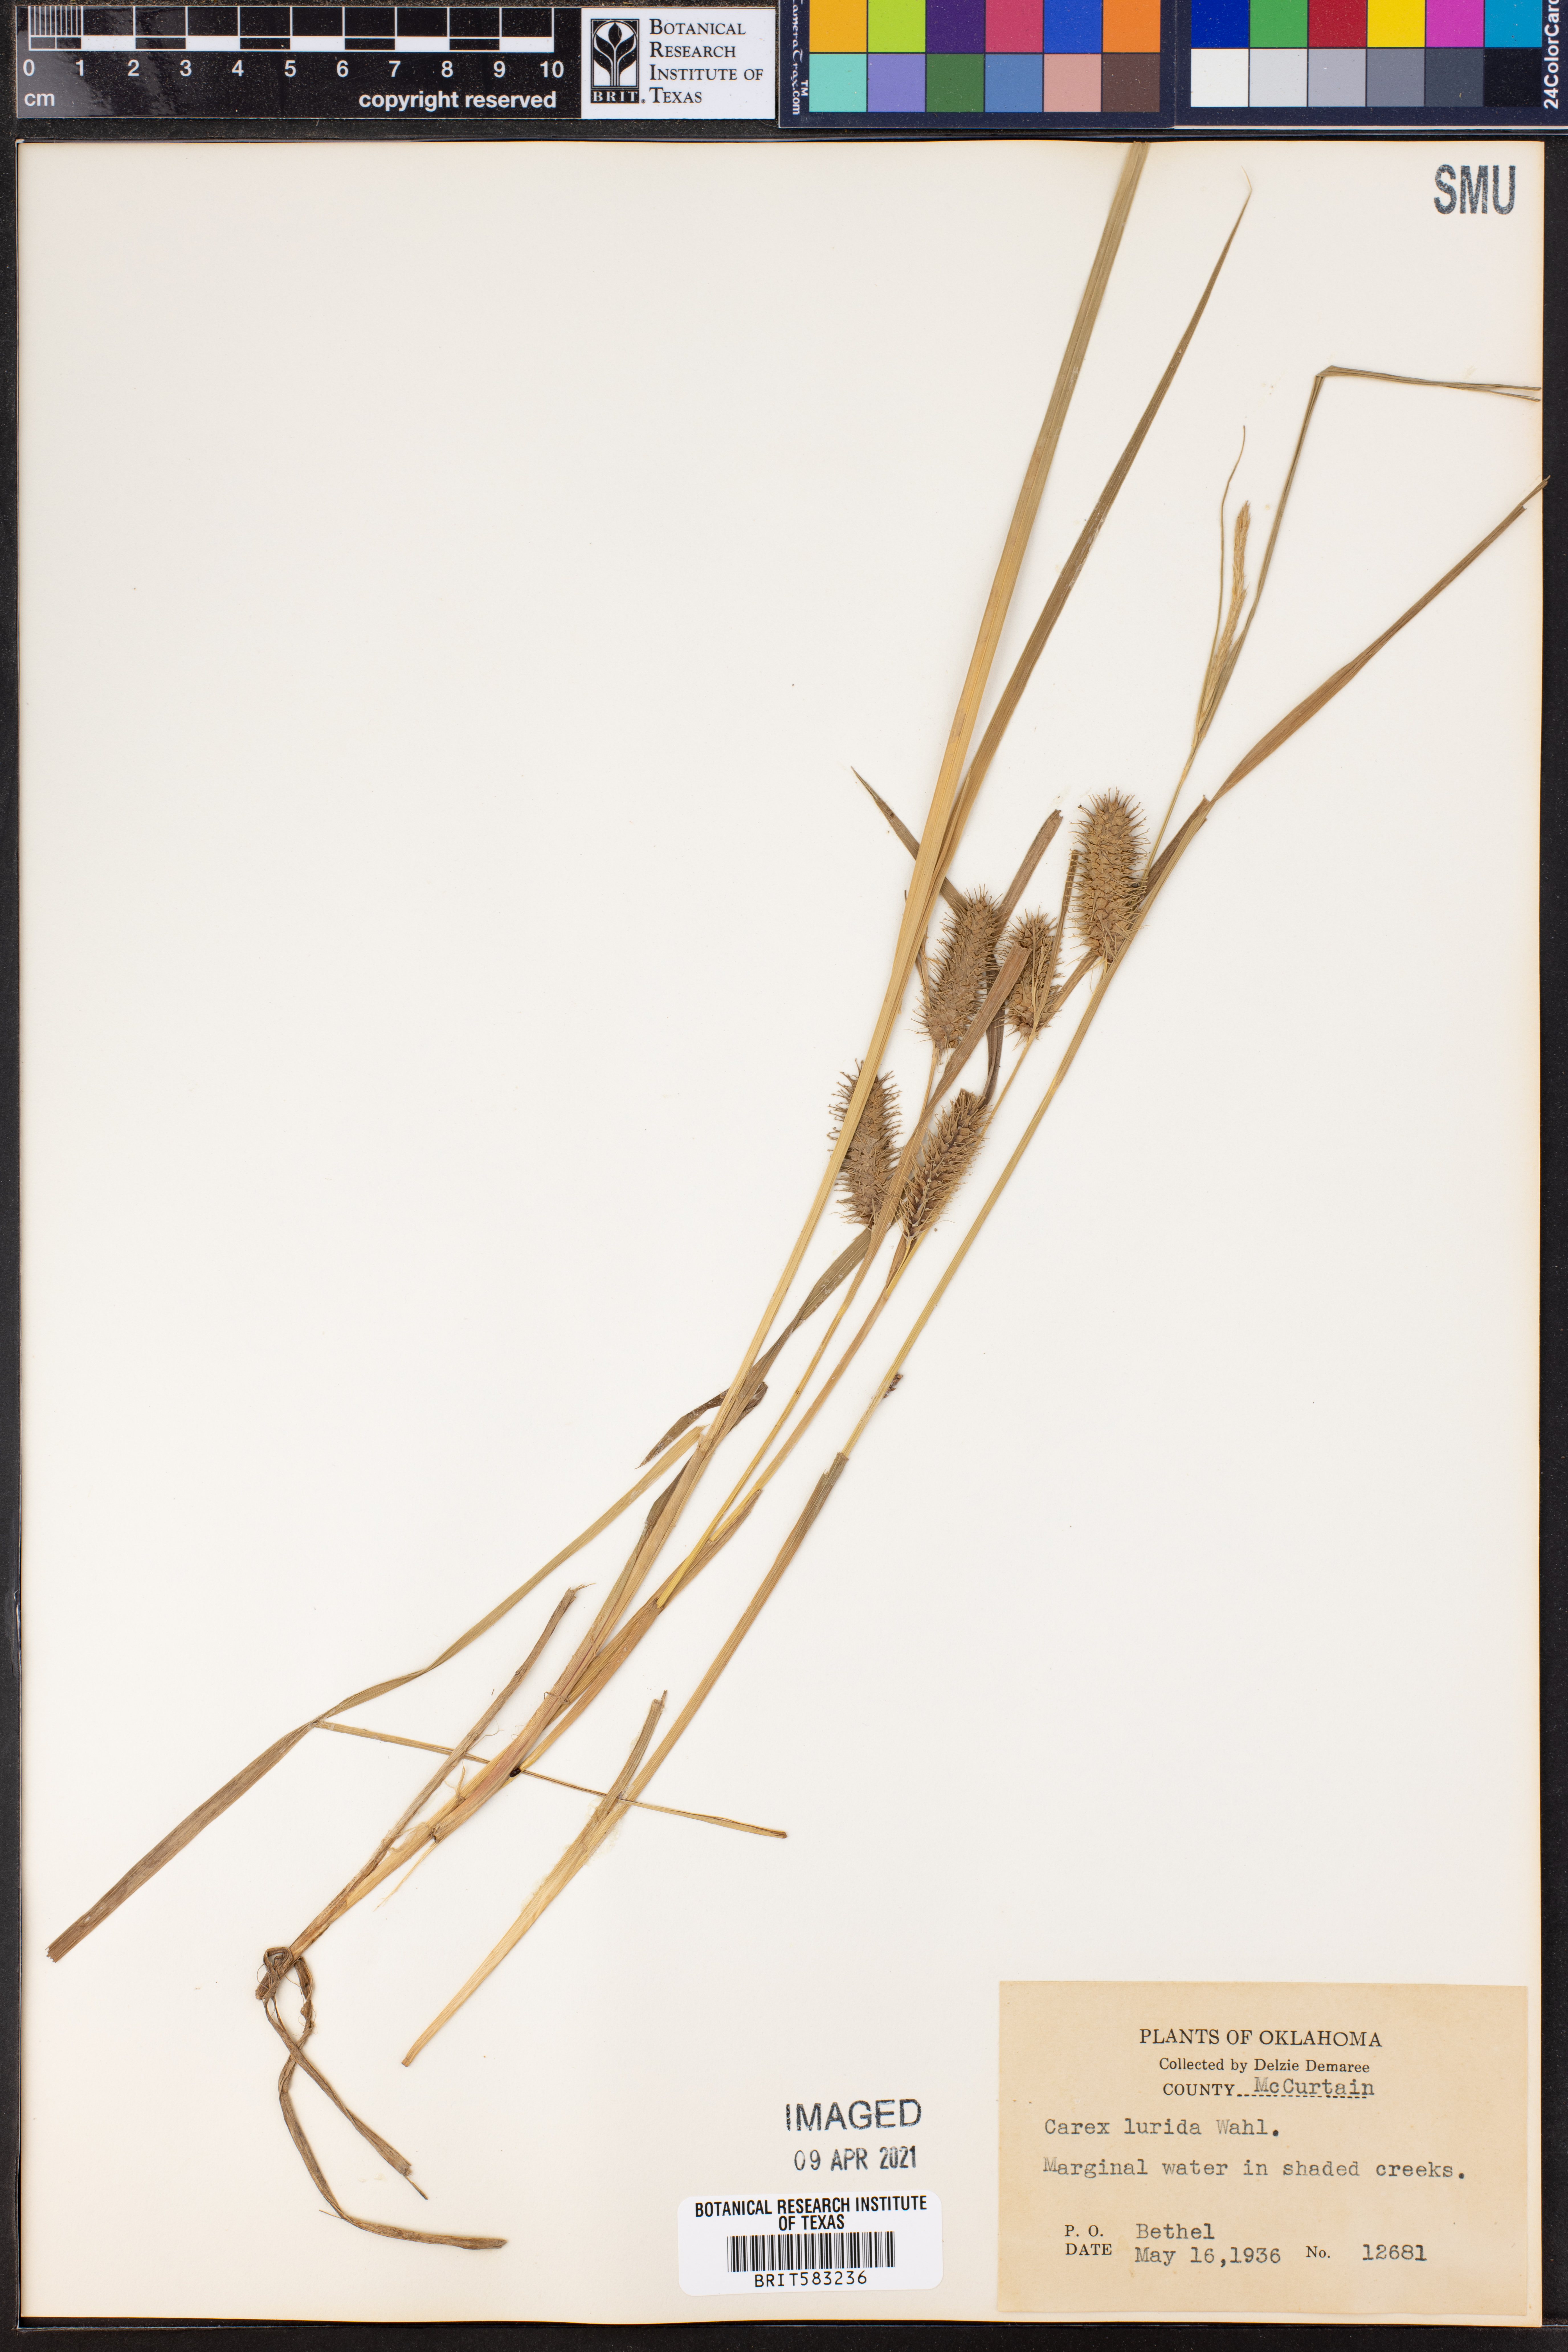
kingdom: Plantae
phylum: Tracheophyta
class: Liliopsida
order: Poales
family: Cyperaceae
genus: Carex
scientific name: Carex lurida
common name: Sallow sedge
